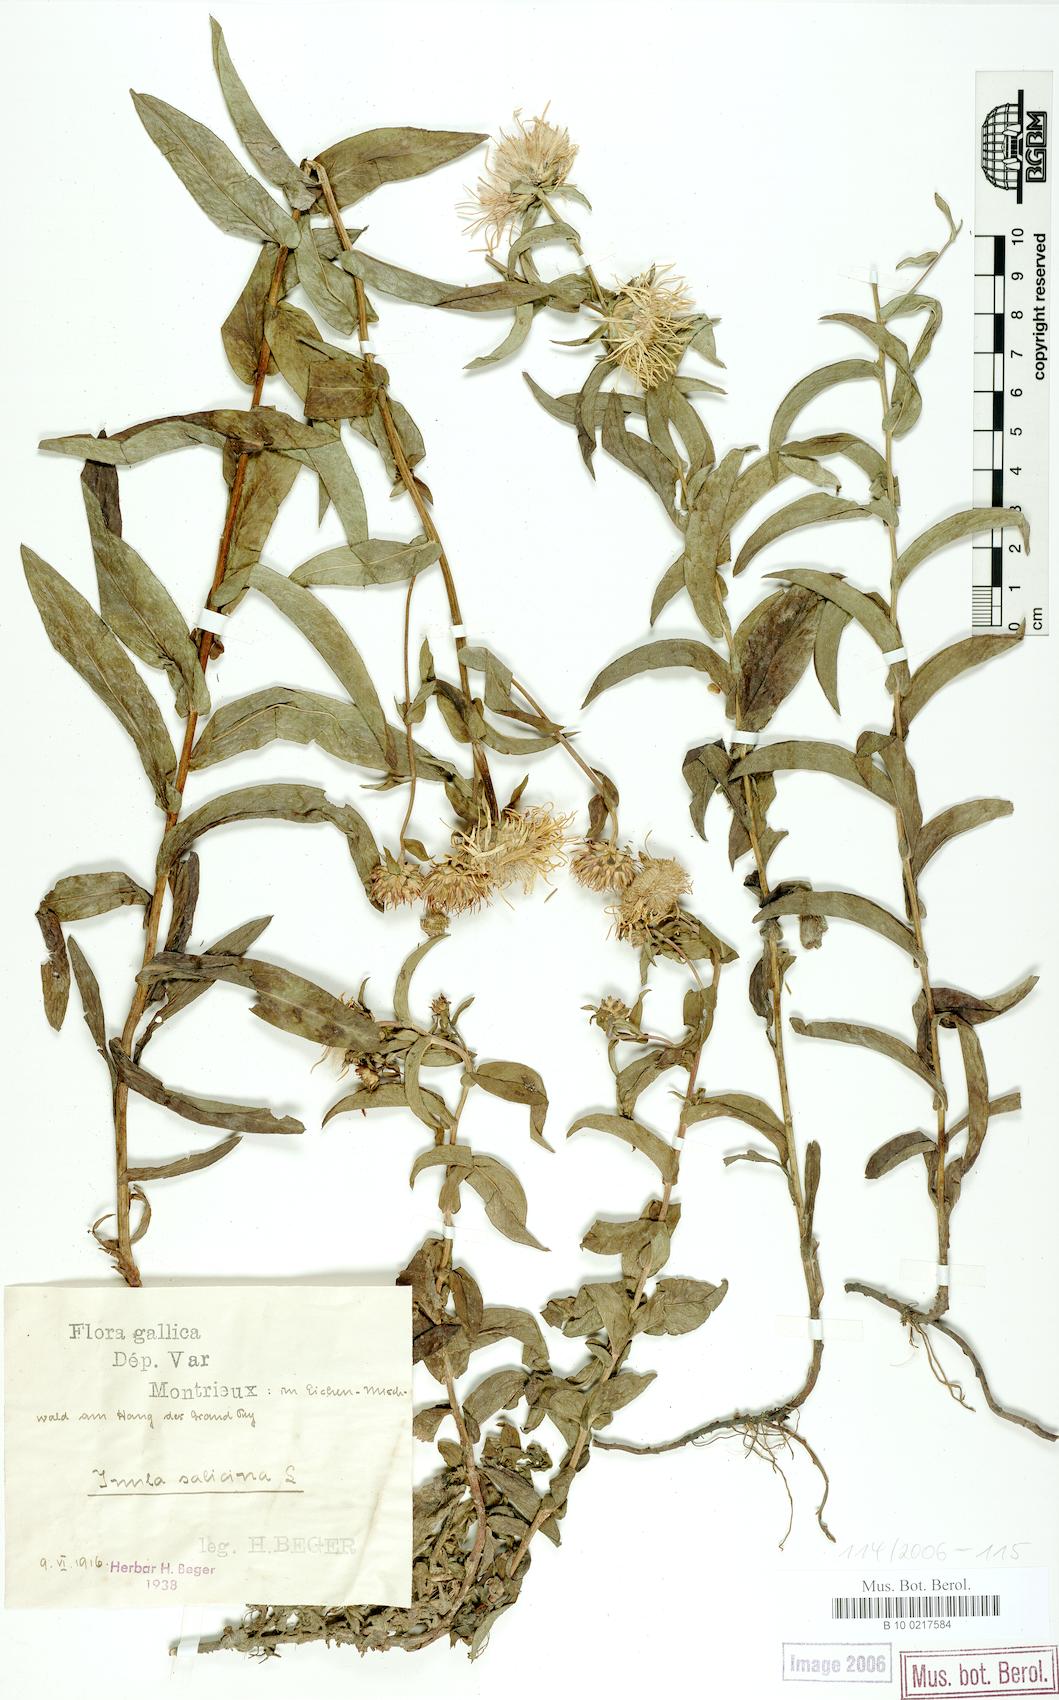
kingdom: Plantae
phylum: Tracheophyta
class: Magnoliopsida
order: Asterales
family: Asteraceae
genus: Pentanema
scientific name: Pentanema salicinum
